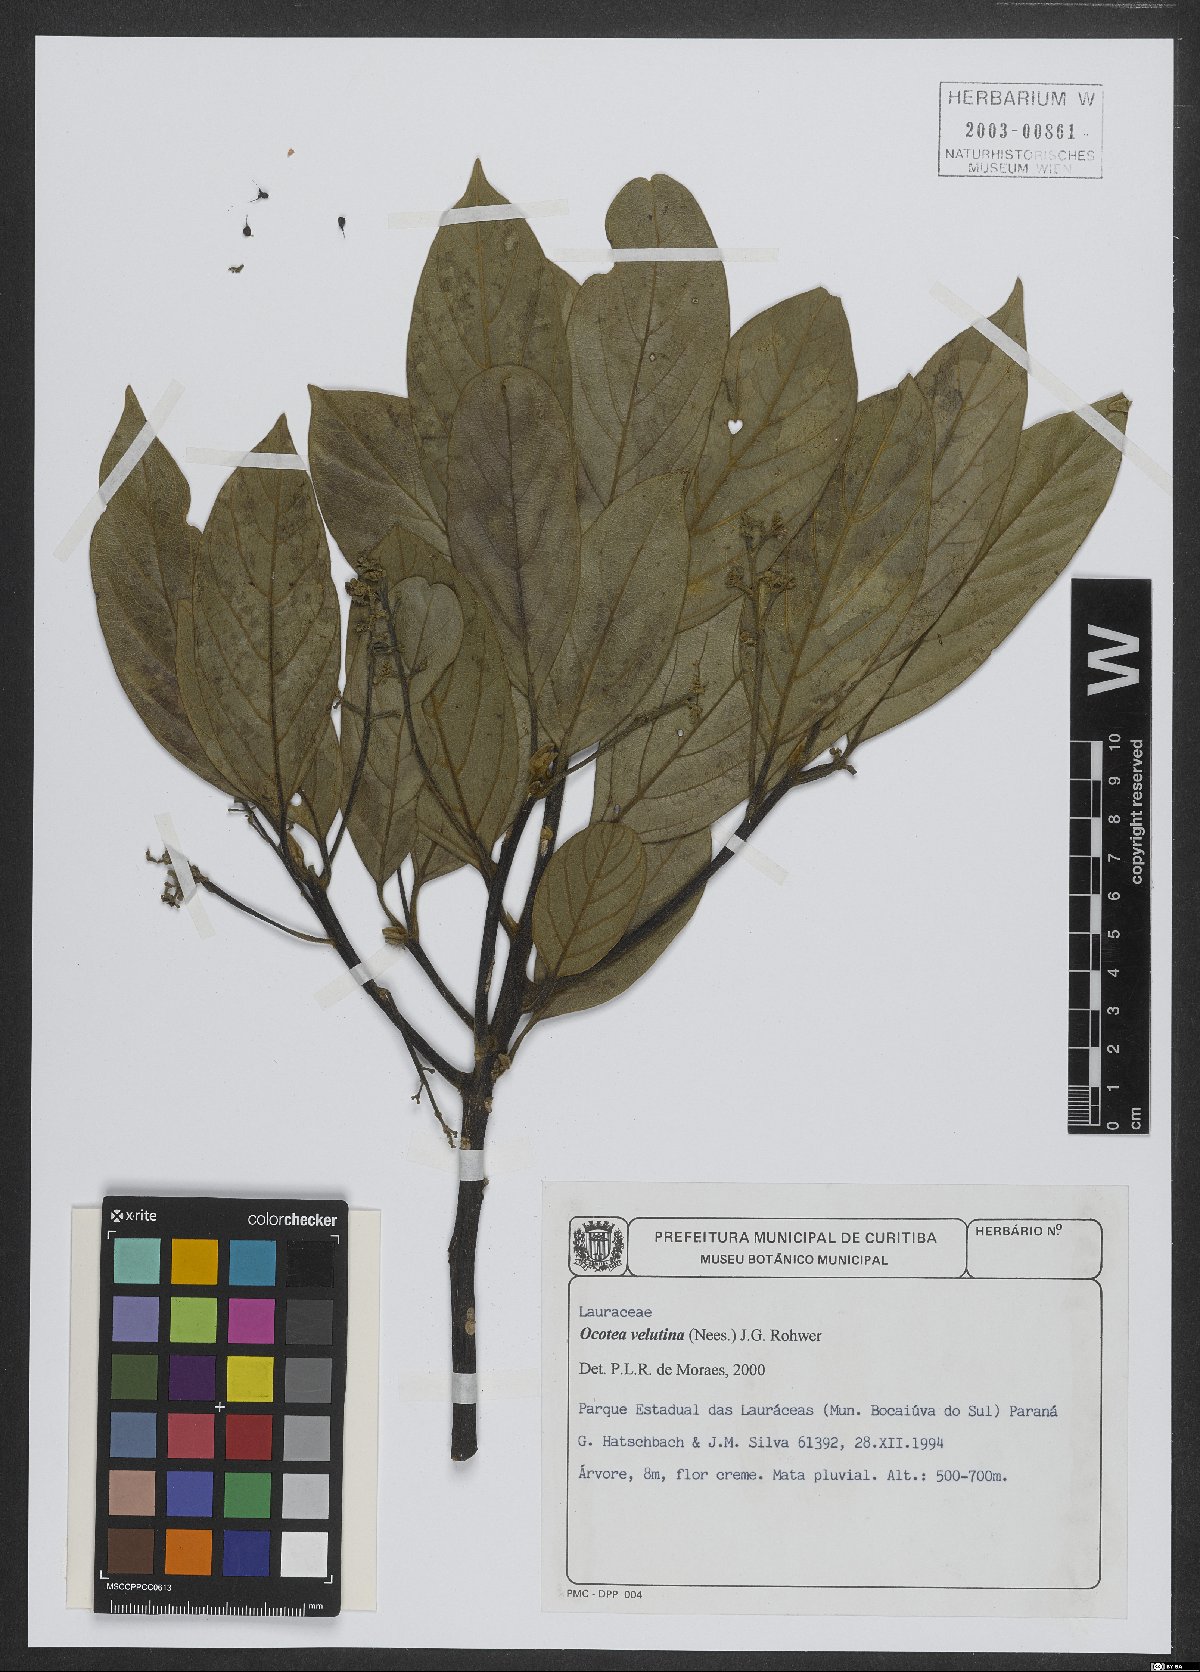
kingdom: Plantae
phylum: Tracheophyta
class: Magnoliopsida
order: Laurales
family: Lauraceae
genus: Andea
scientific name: Andea velutina
